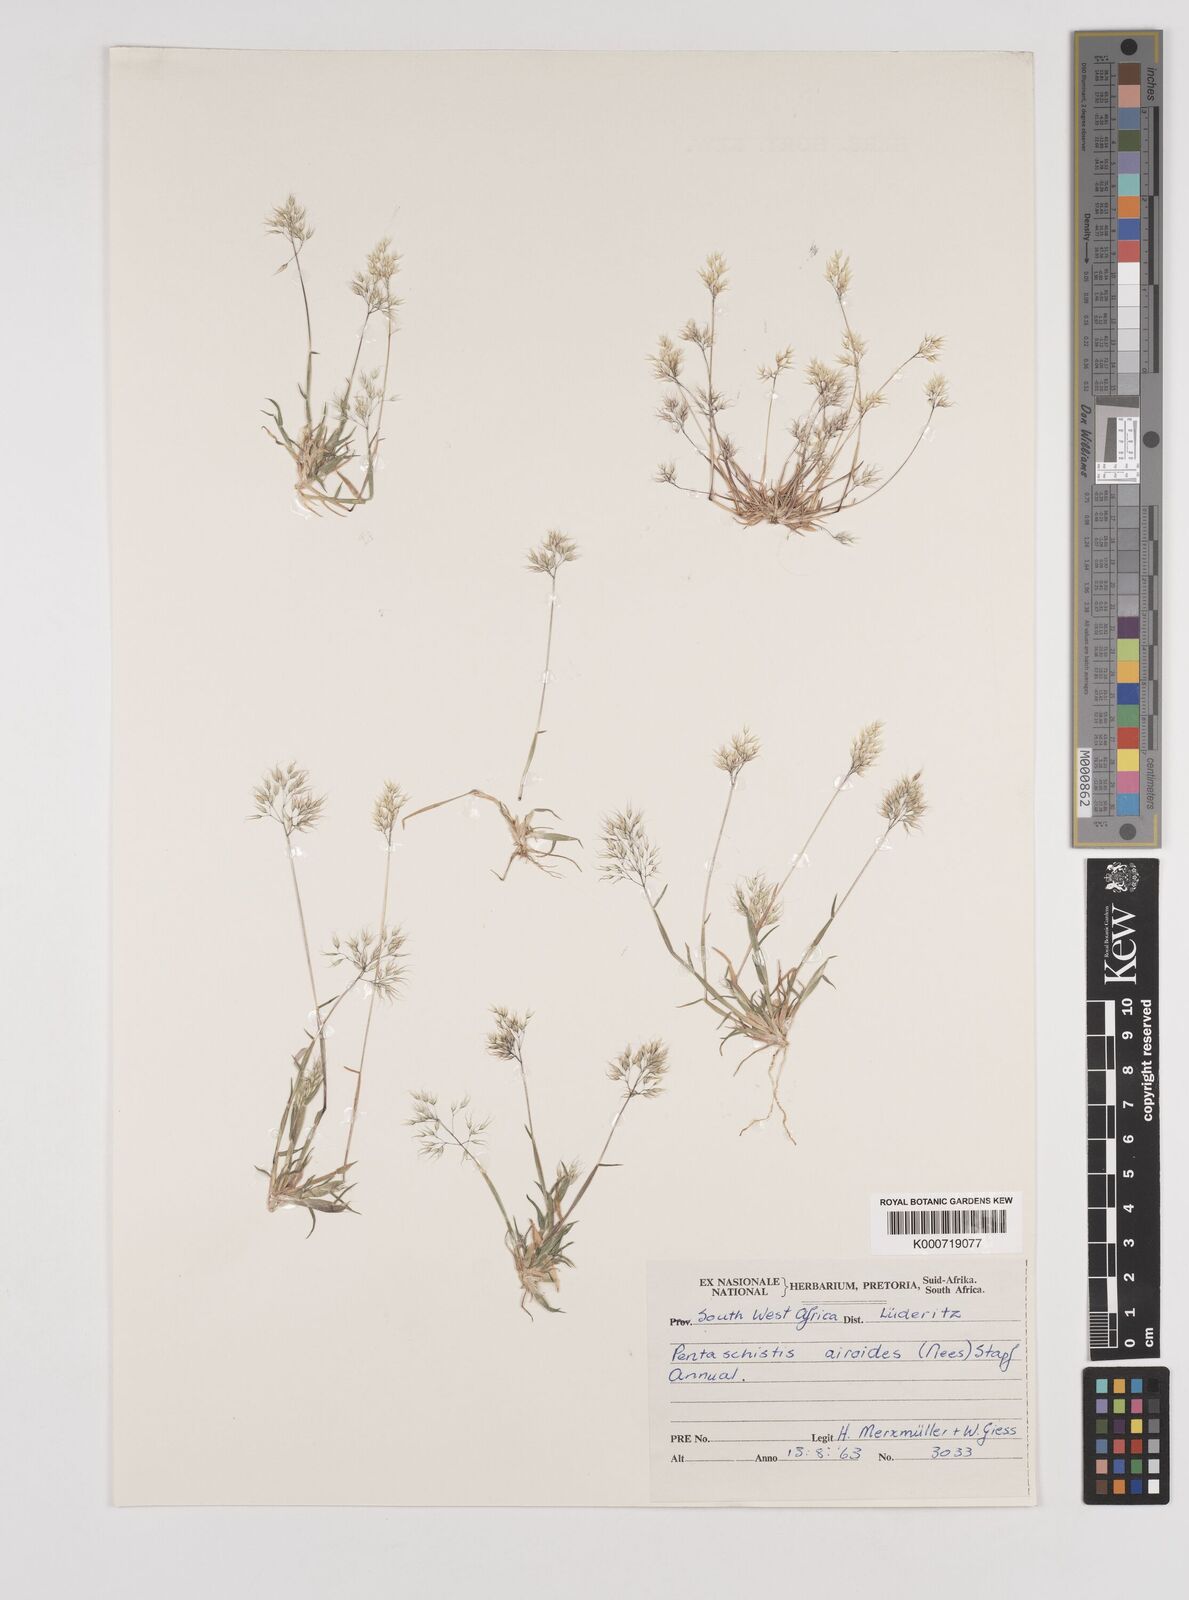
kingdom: Plantae
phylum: Tracheophyta
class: Liliopsida
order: Poales
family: Poaceae
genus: Pentameris
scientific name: Pentameris airoides
